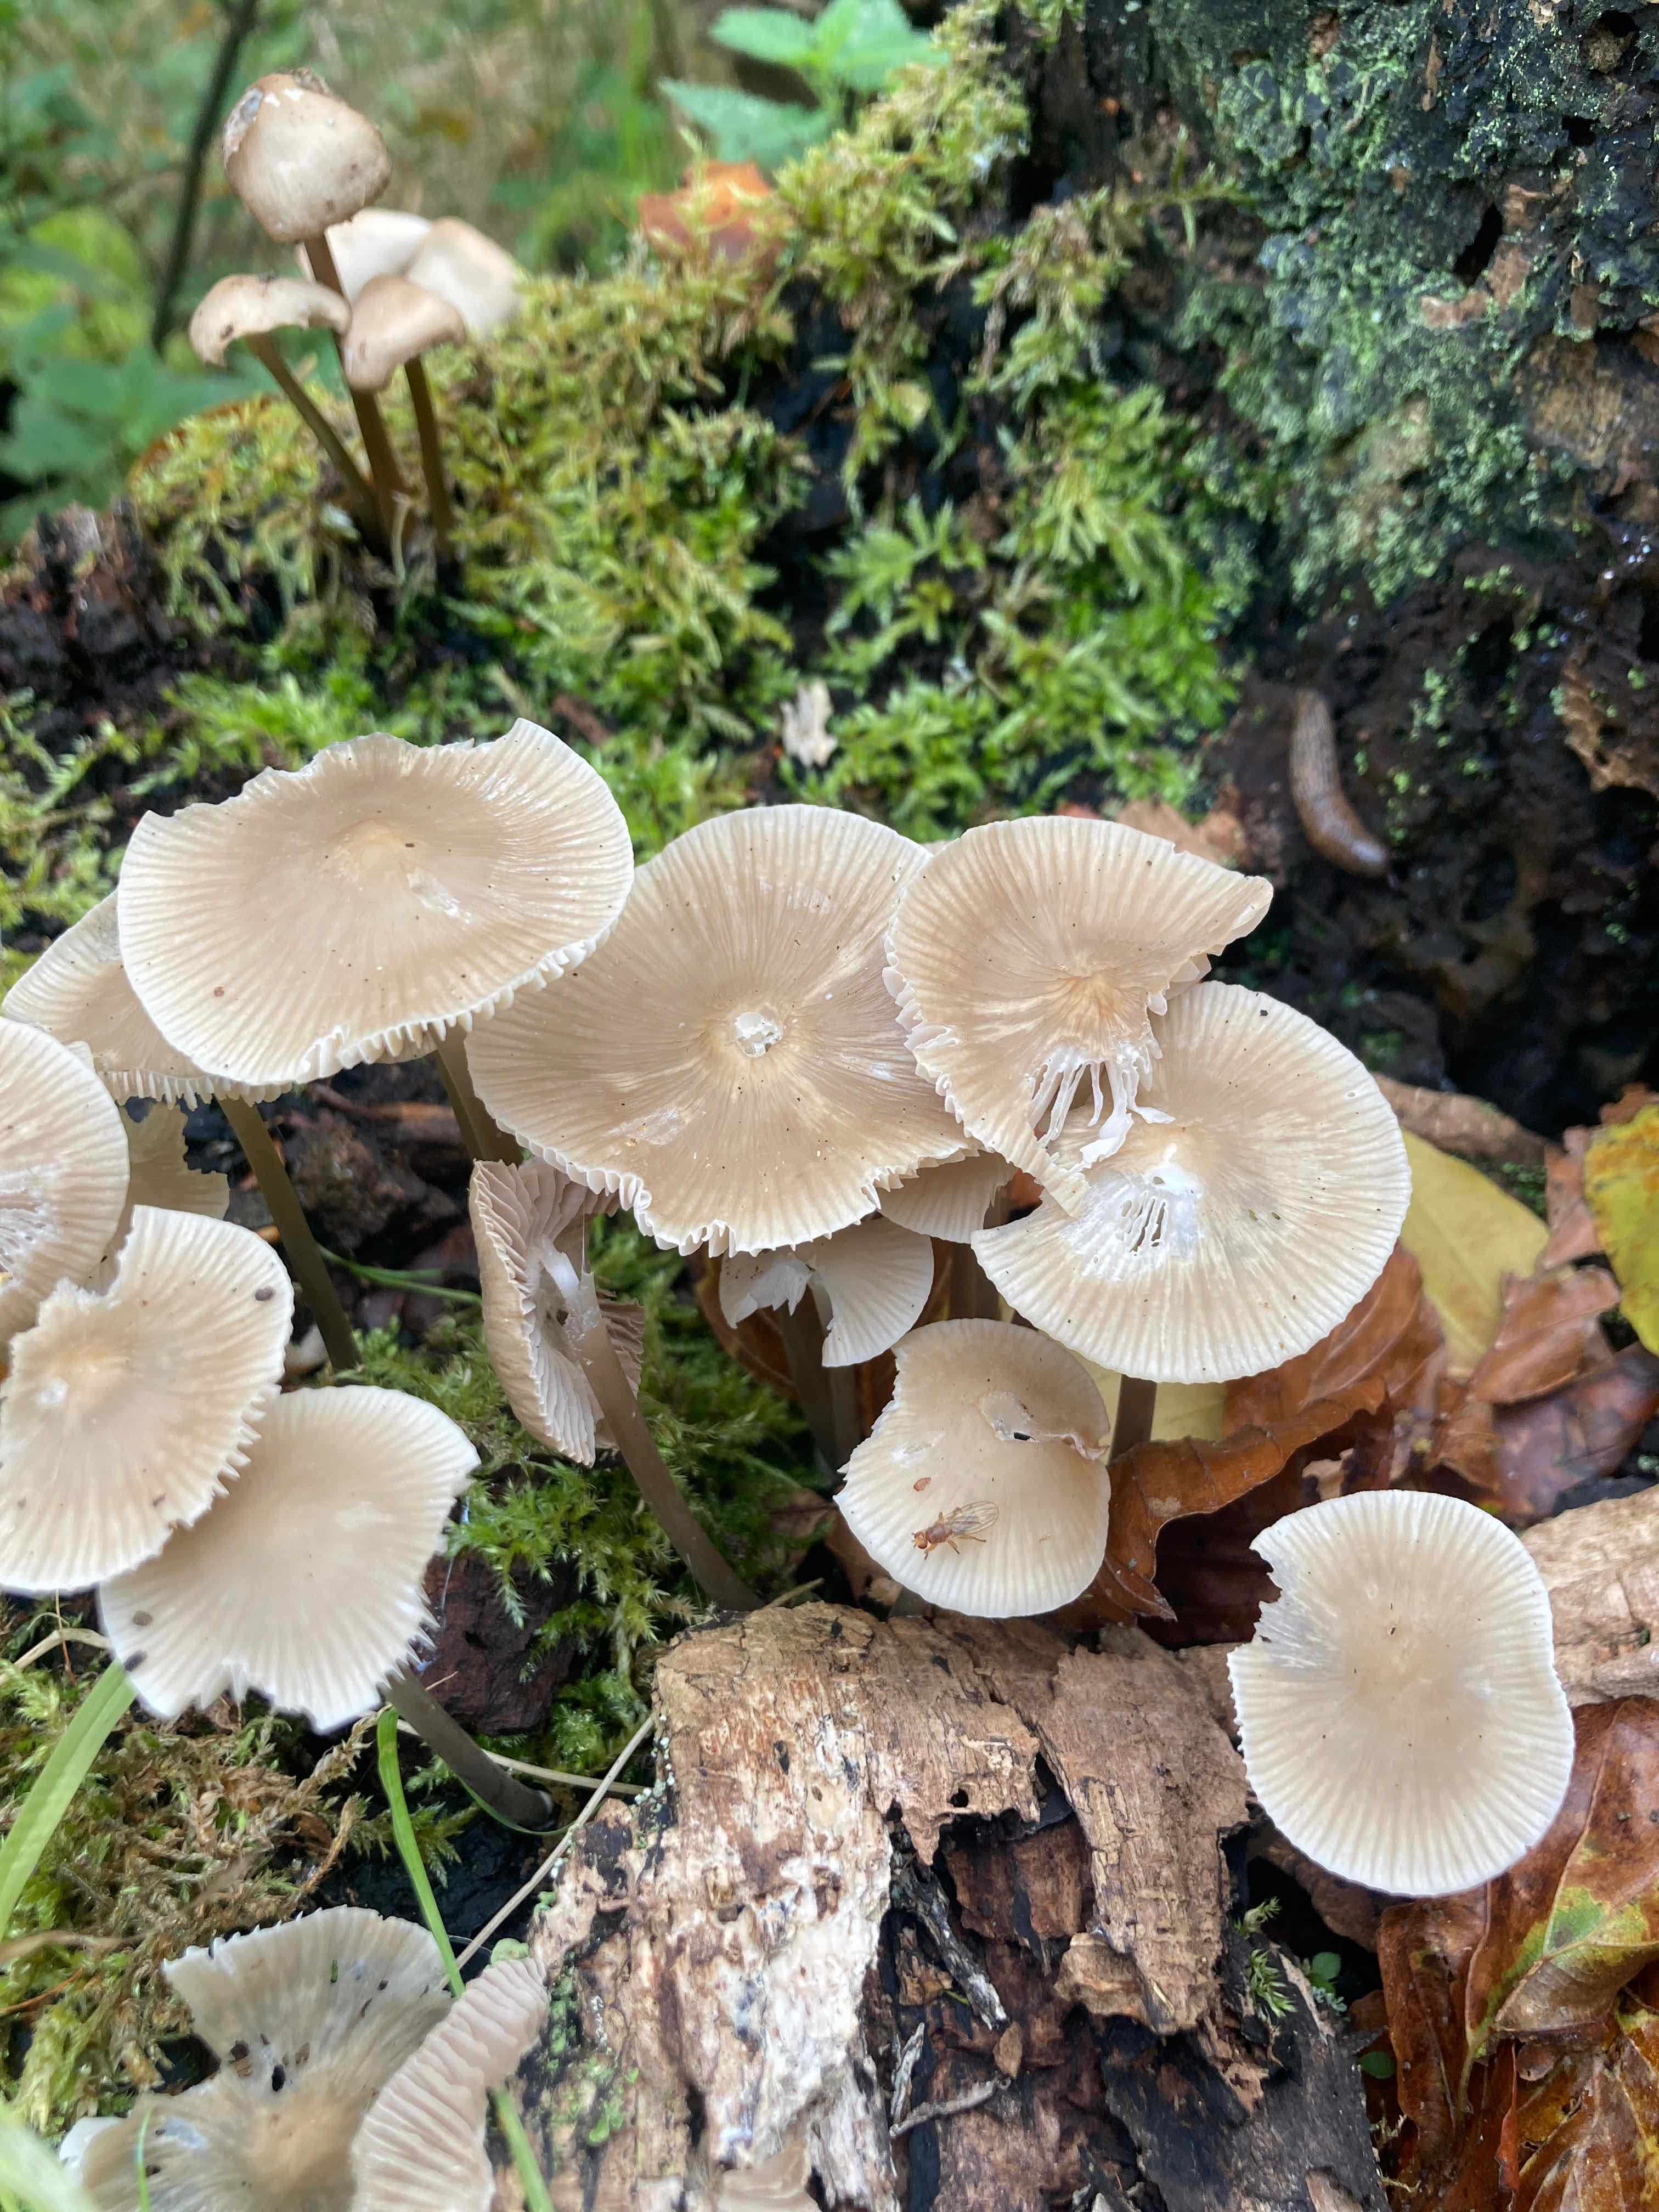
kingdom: Fungi
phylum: Basidiomycota
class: Agaricomycetes
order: Agaricales
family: Mycenaceae
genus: Mycena
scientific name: Mycena galericulata
